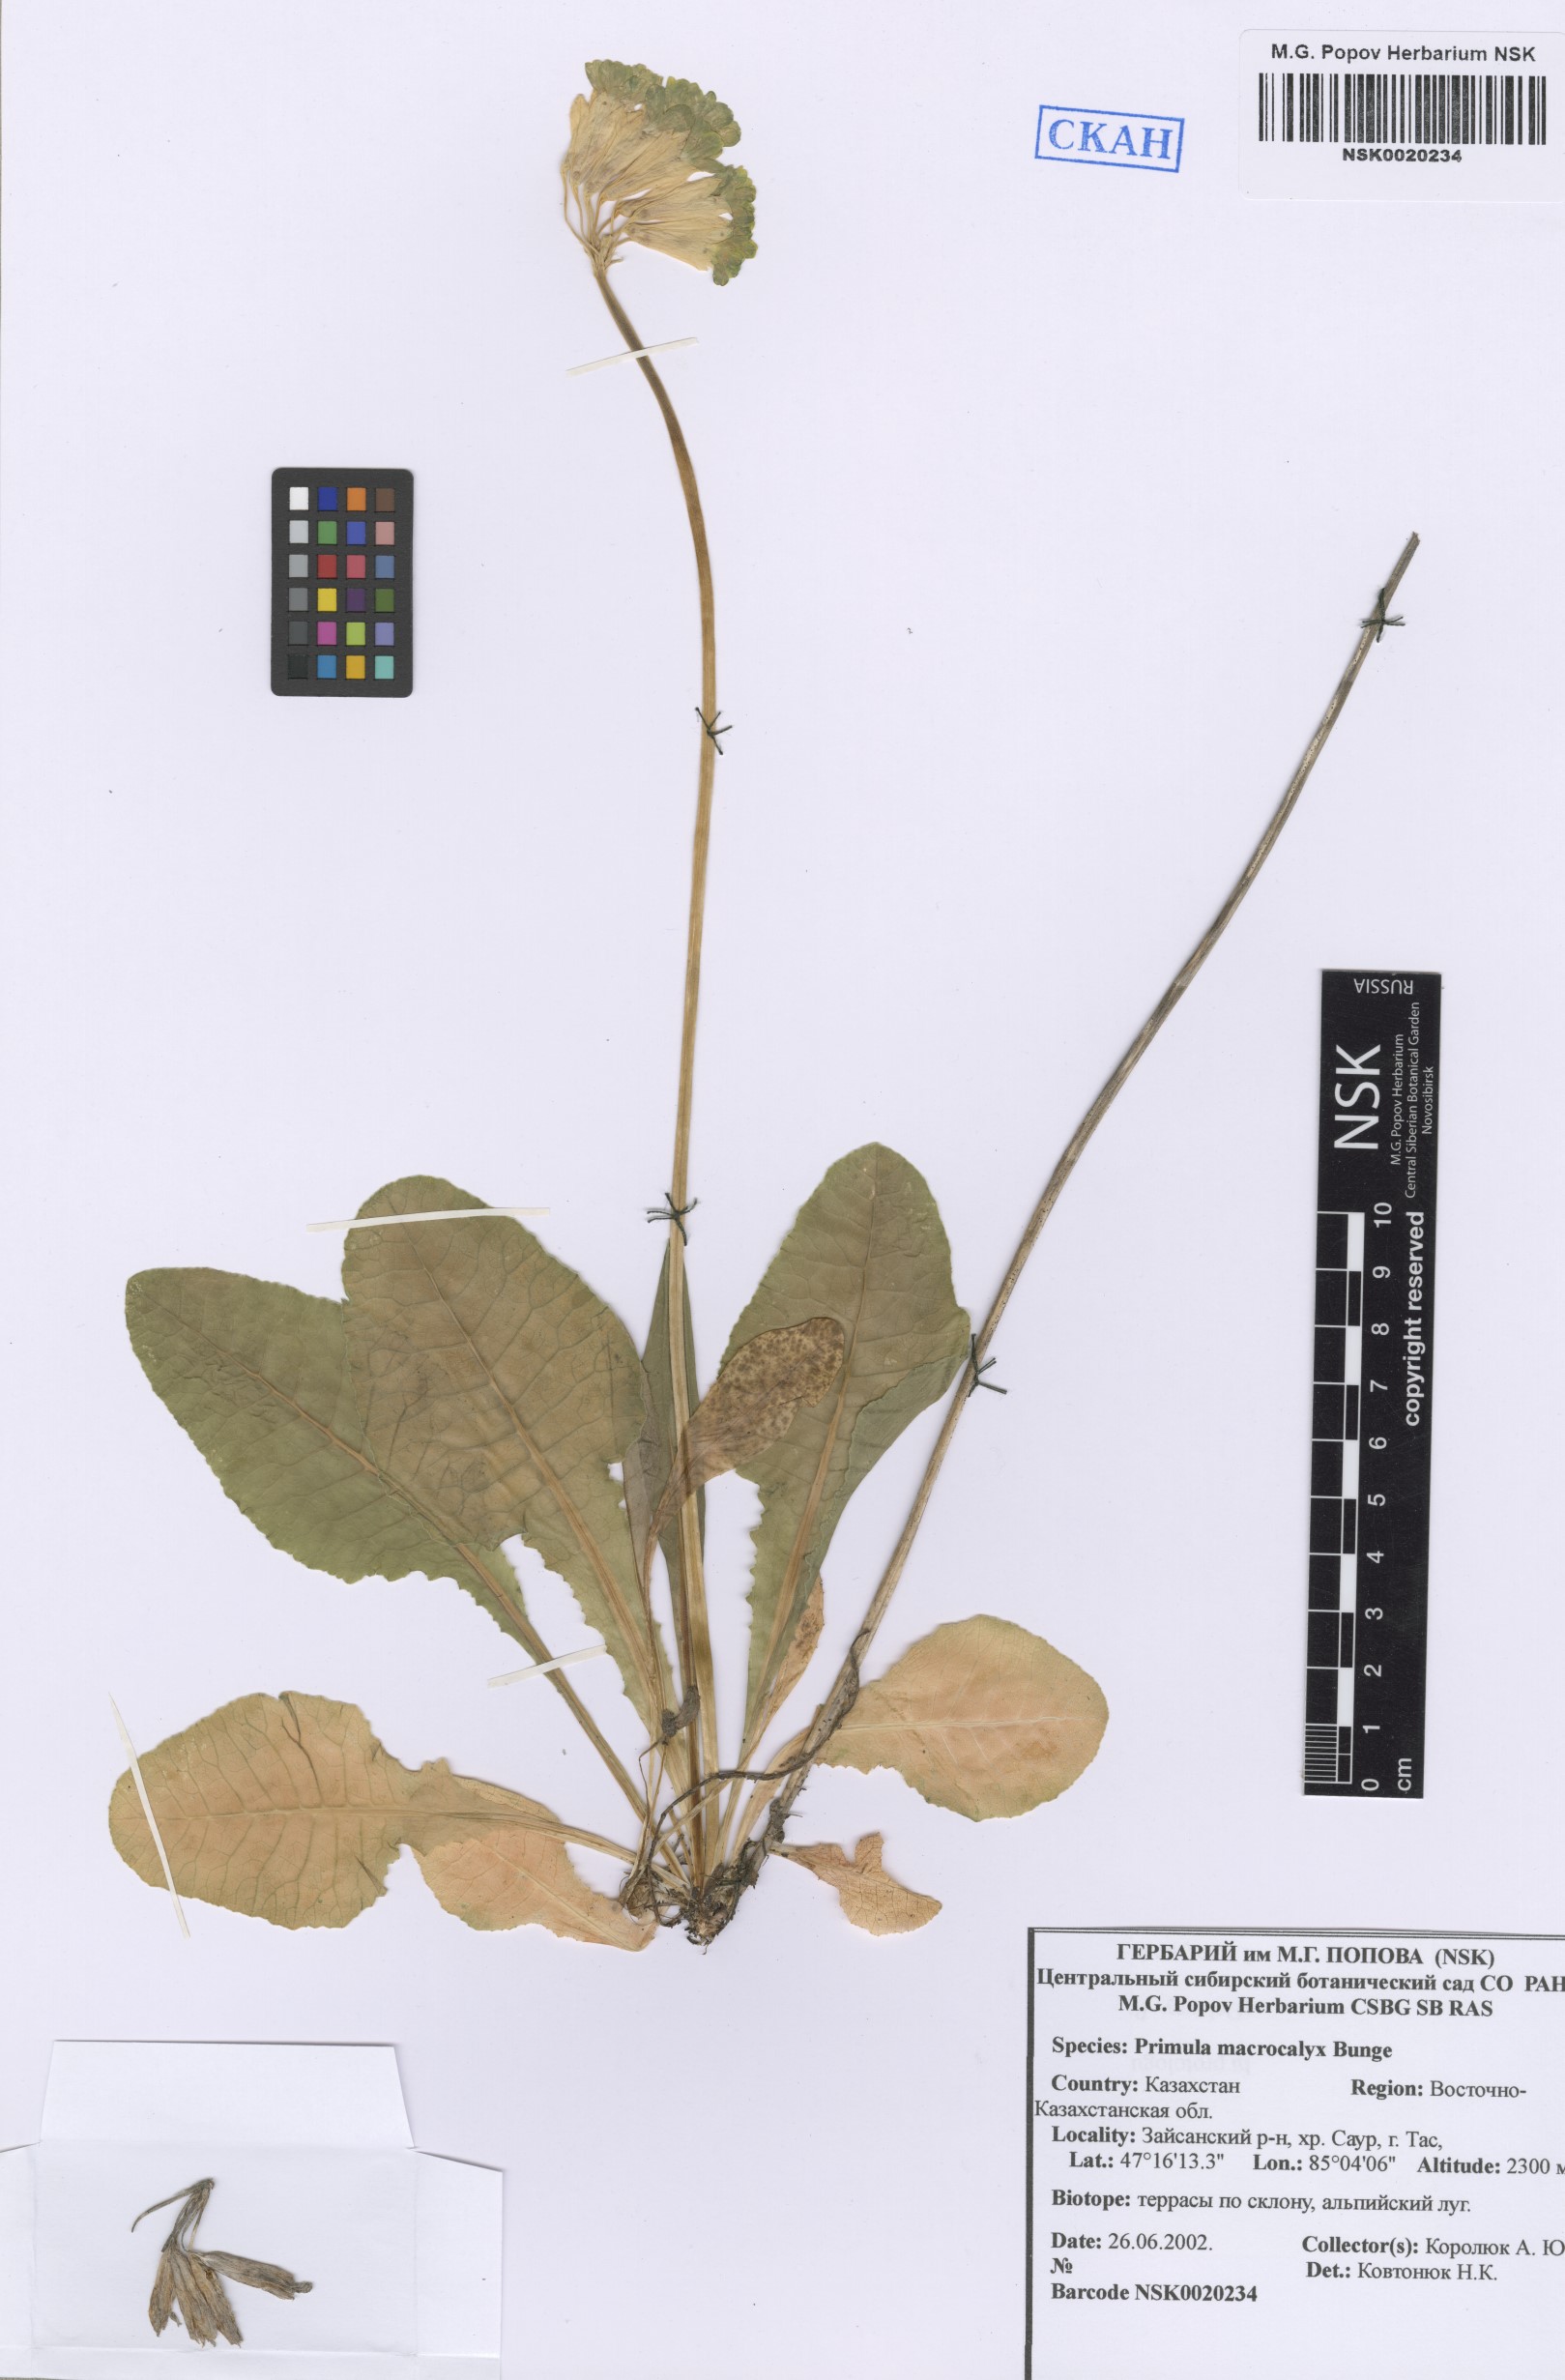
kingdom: Plantae
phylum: Tracheophyta
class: Magnoliopsida
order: Ericales
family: Primulaceae
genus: Primula
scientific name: Primula veris
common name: Cowslip
